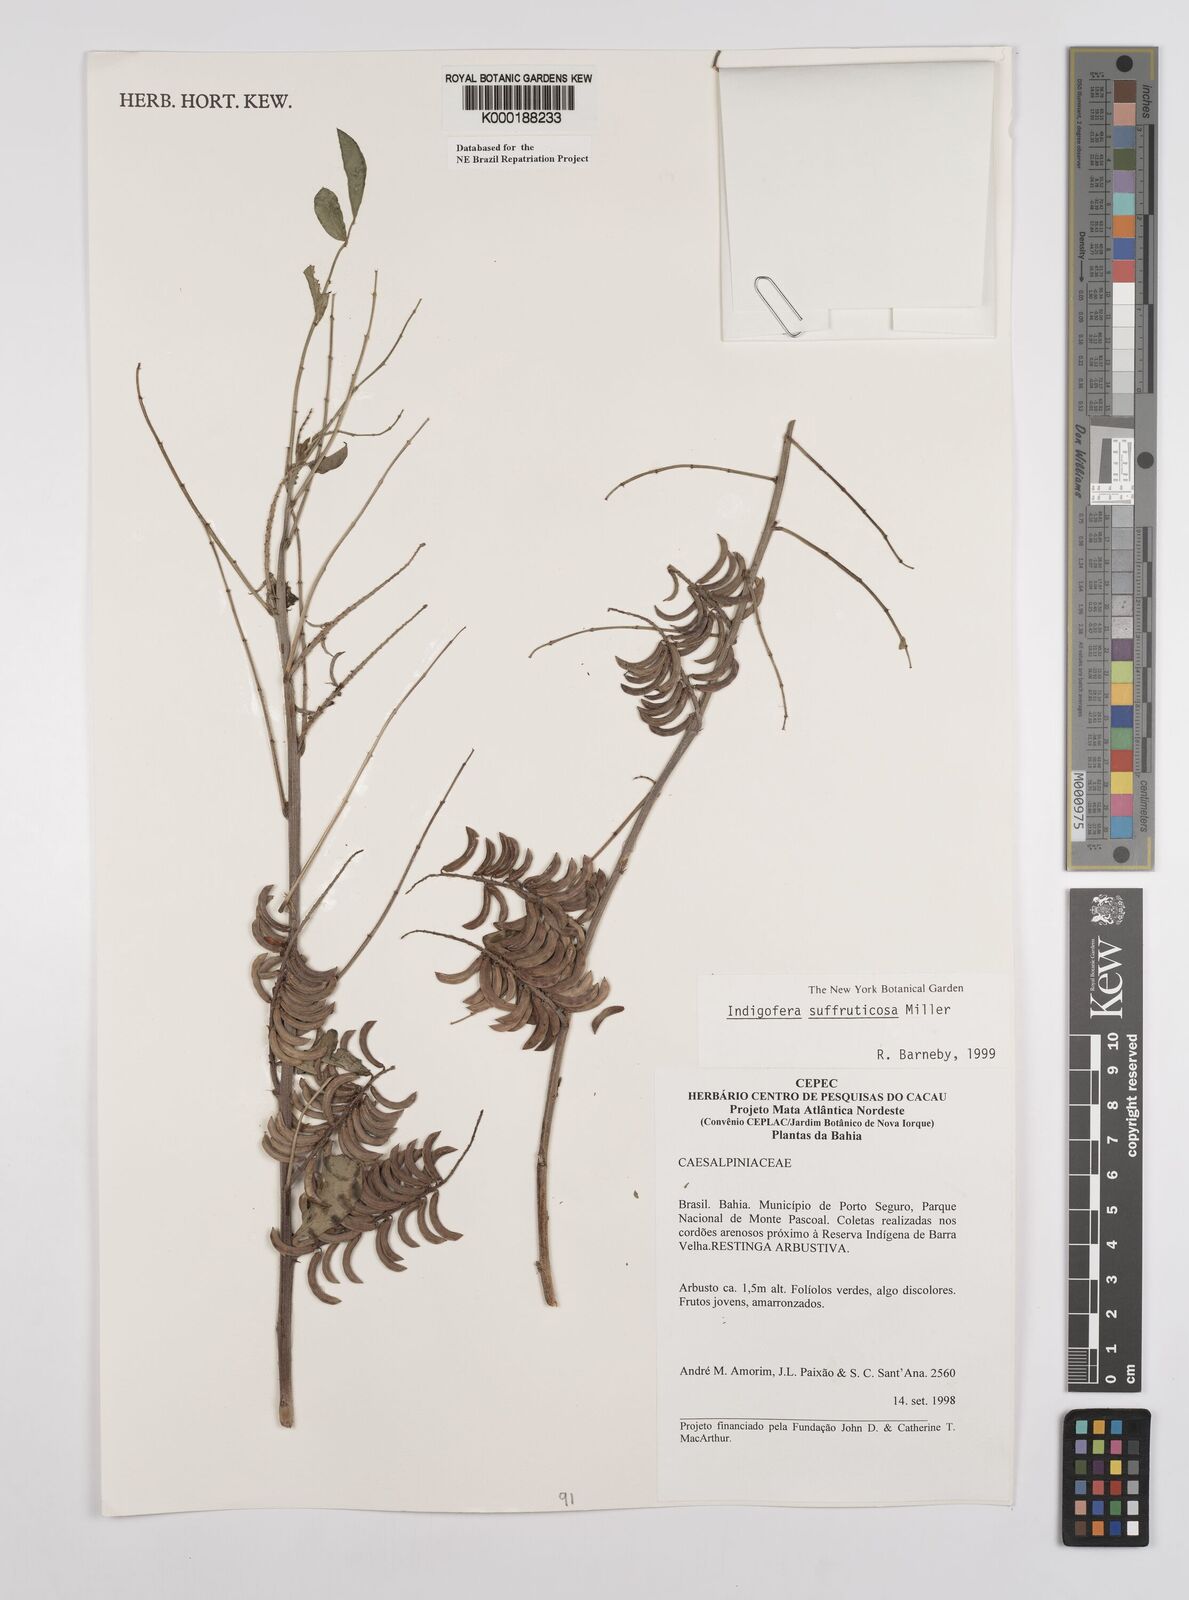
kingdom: Plantae
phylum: Tracheophyta
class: Magnoliopsida
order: Fabales
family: Fabaceae
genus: Indigofera
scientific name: Indigofera suffruticosa
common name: Anil de pasto
